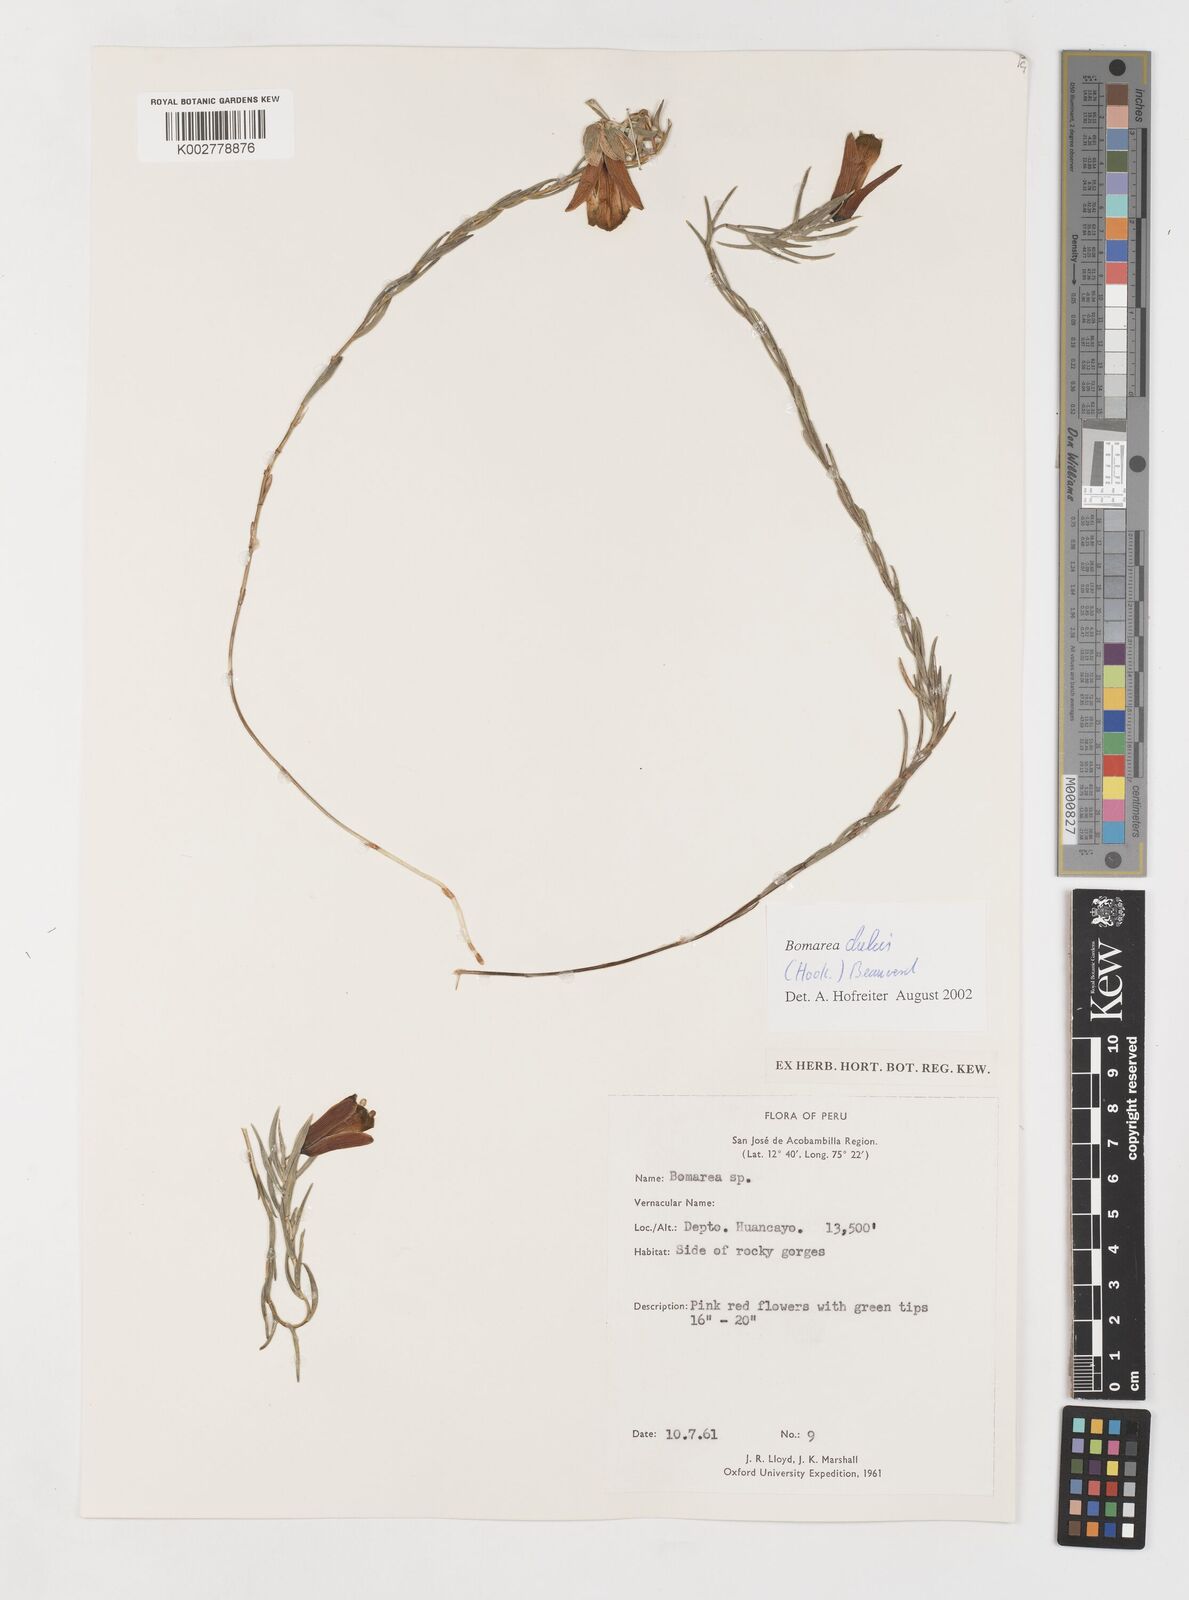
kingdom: Plantae
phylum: Tracheophyta
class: Liliopsida
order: Liliales
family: Alstroemeriaceae
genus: Bomarea
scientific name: Bomarea dulcis
